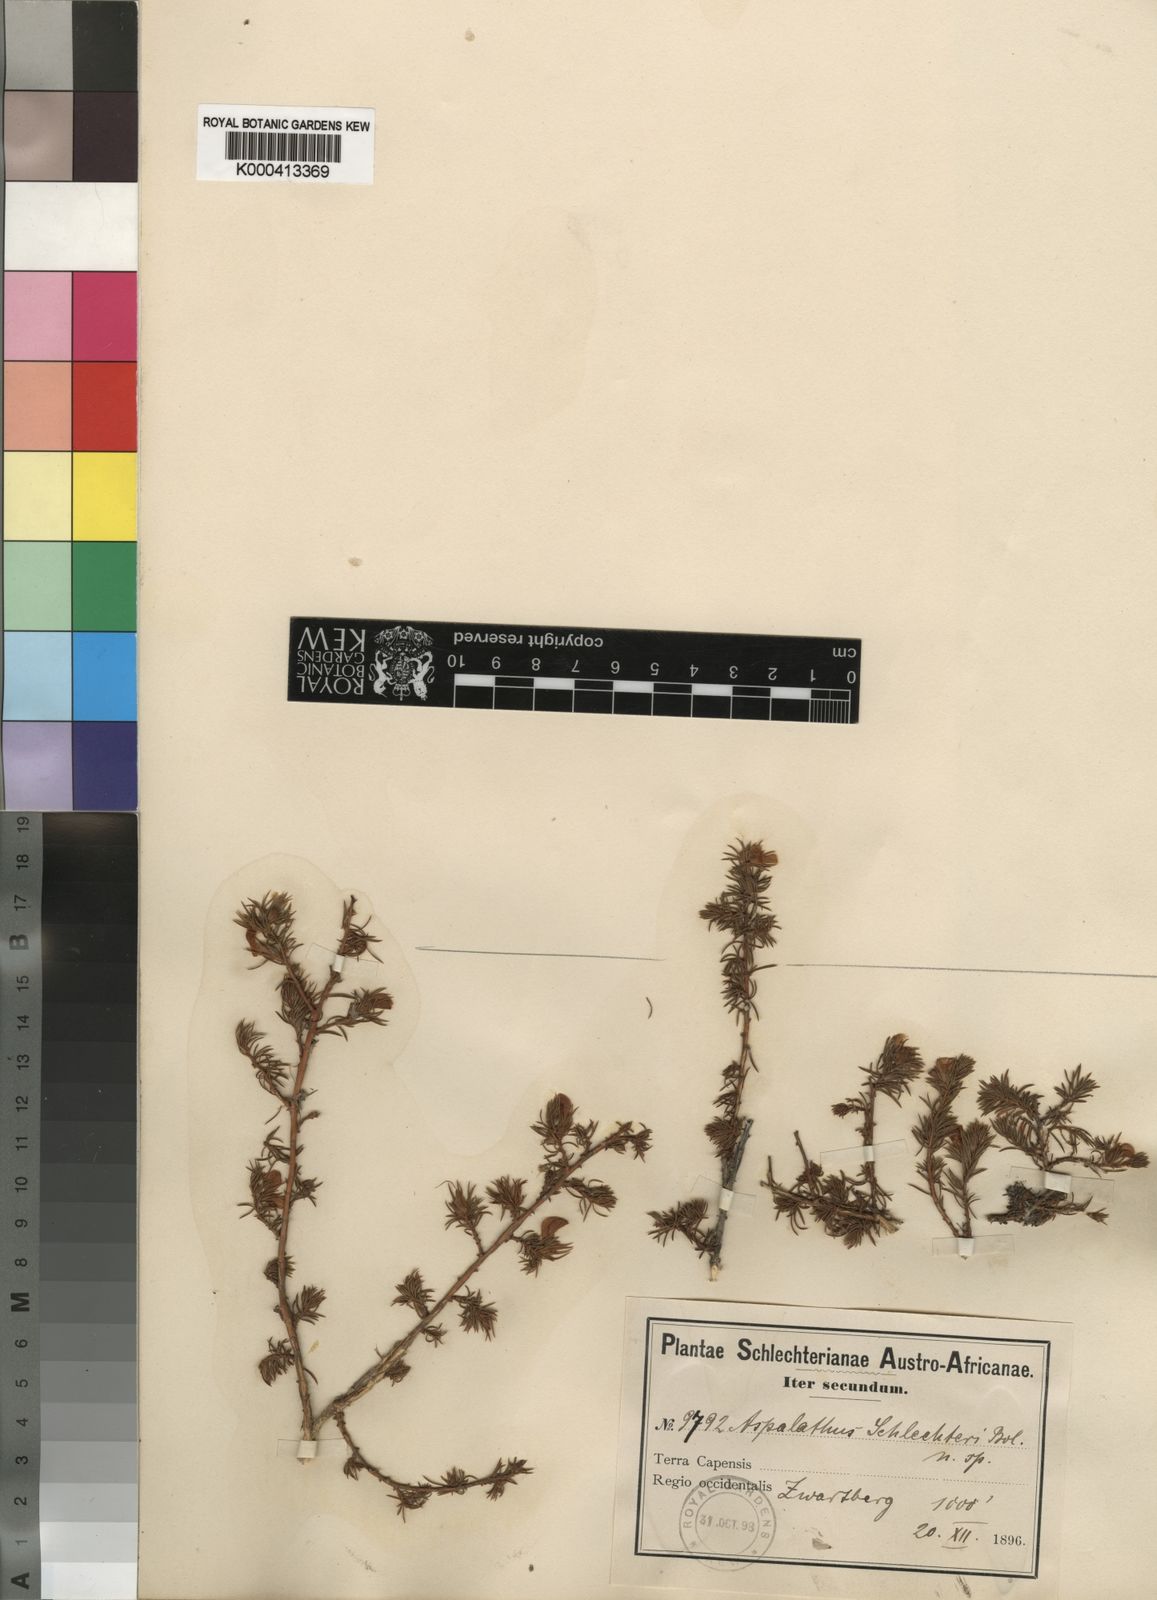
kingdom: Plantae
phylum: Tracheophyta
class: Magnoliopsida
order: Fabales
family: Fabaceae
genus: Aspalathus
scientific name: Aspalathus opaca
